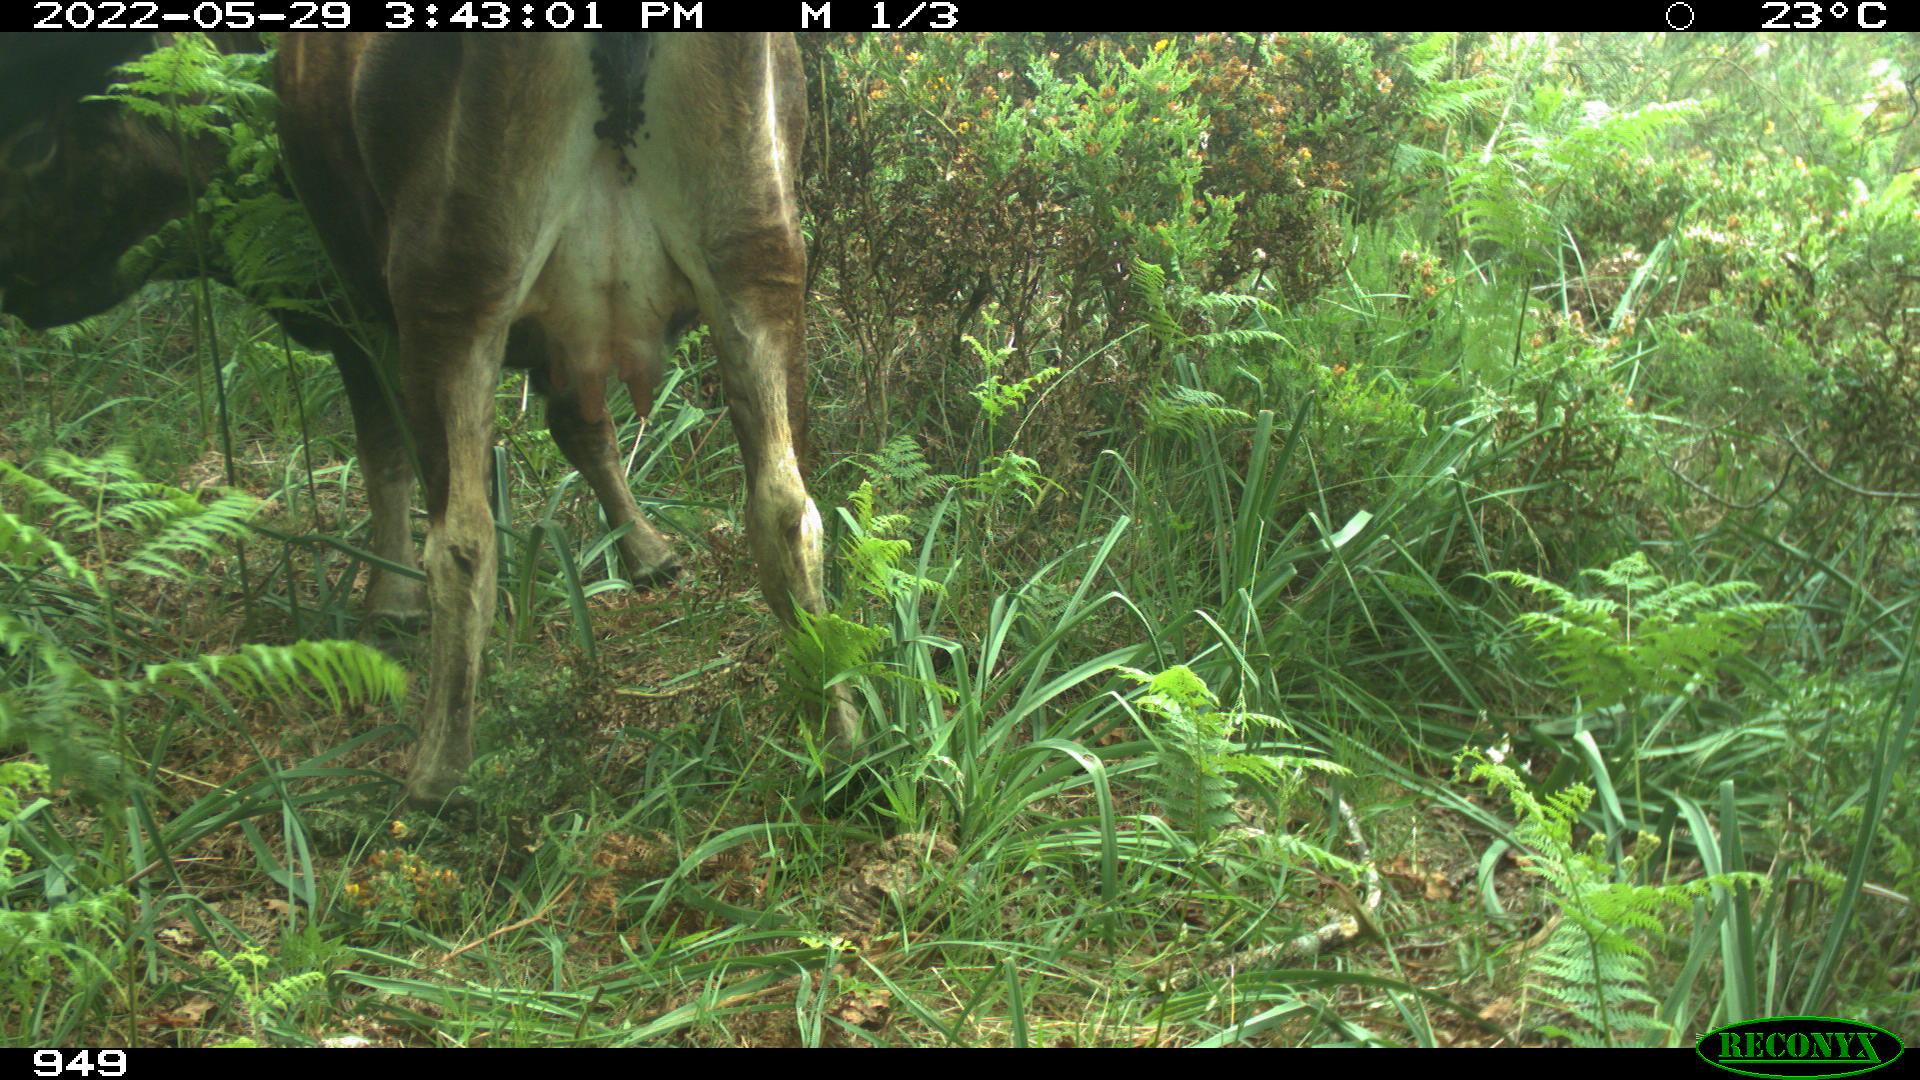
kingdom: Animalia
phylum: Chordata
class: Mammalia
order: Artiodactyla
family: Bovidae
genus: Bos
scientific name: Bos taurus
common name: Domesticated cattle
